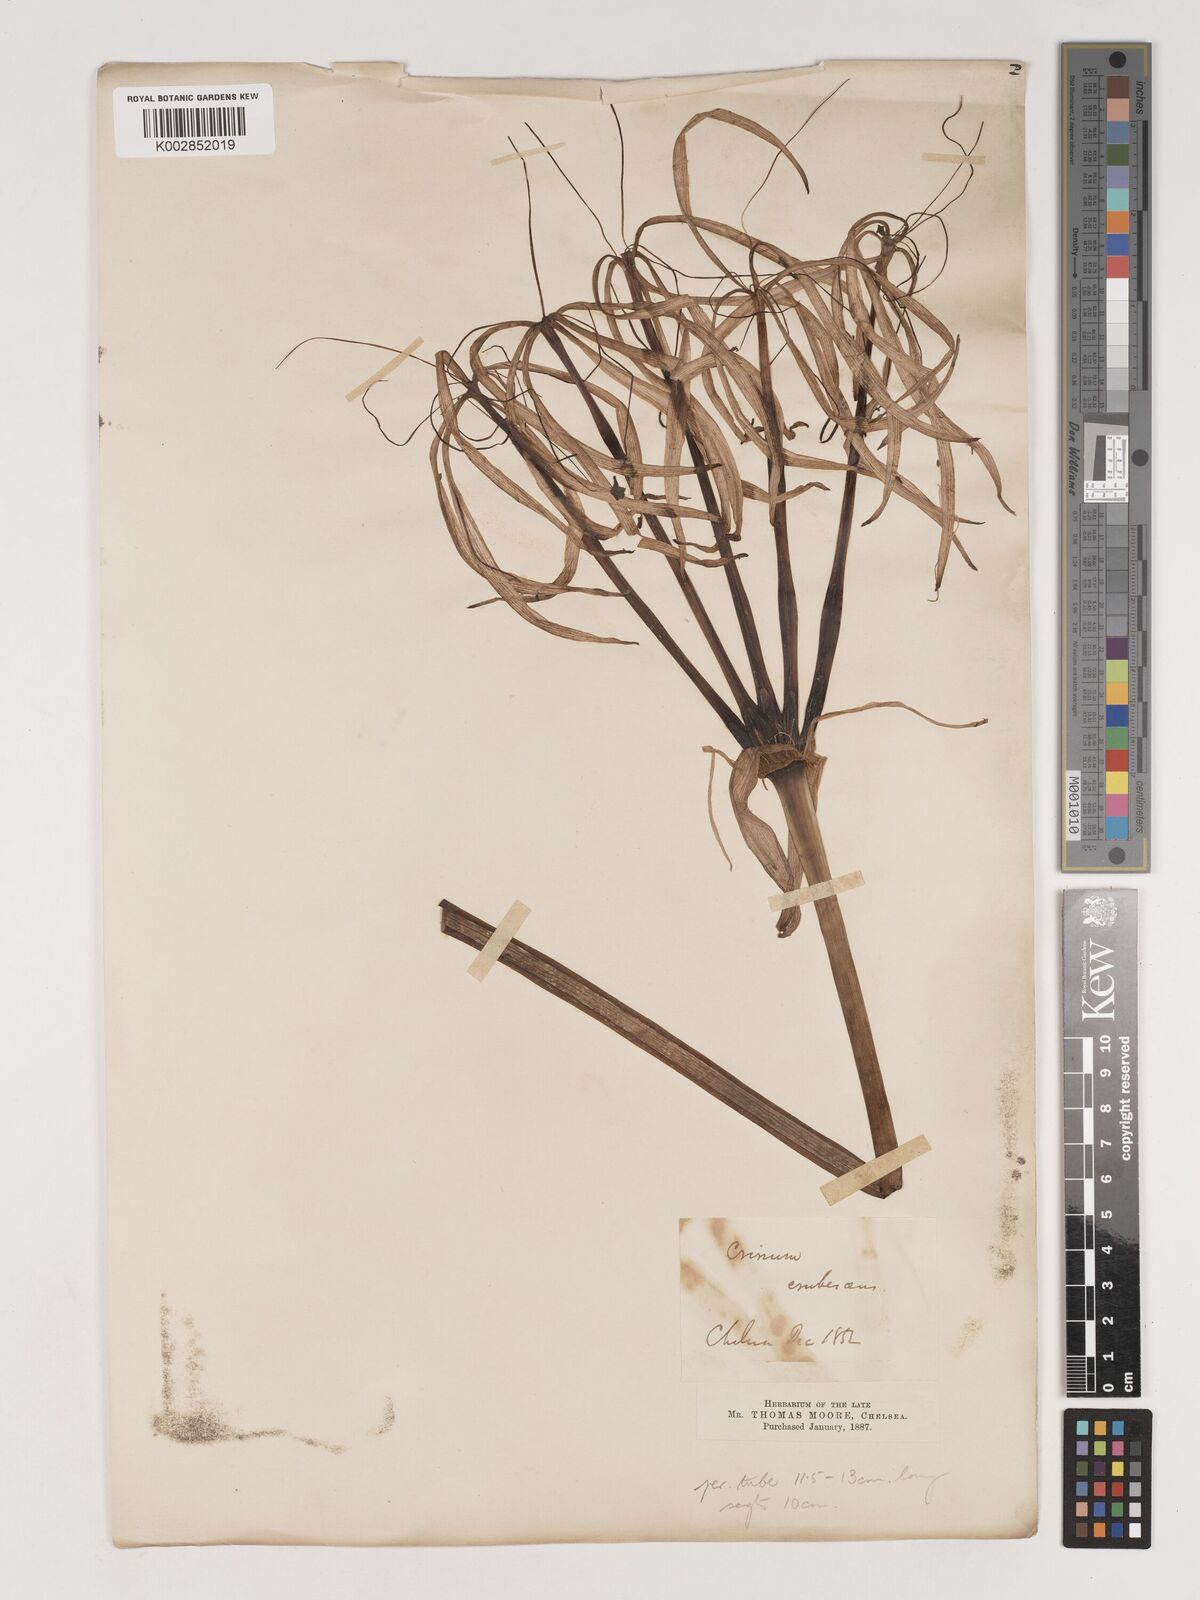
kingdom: Plantae
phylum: Tracheophyta
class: Liliopsida
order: Asparagales
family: Amaryllidaceae
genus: Crinum
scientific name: Crinum erubescens
